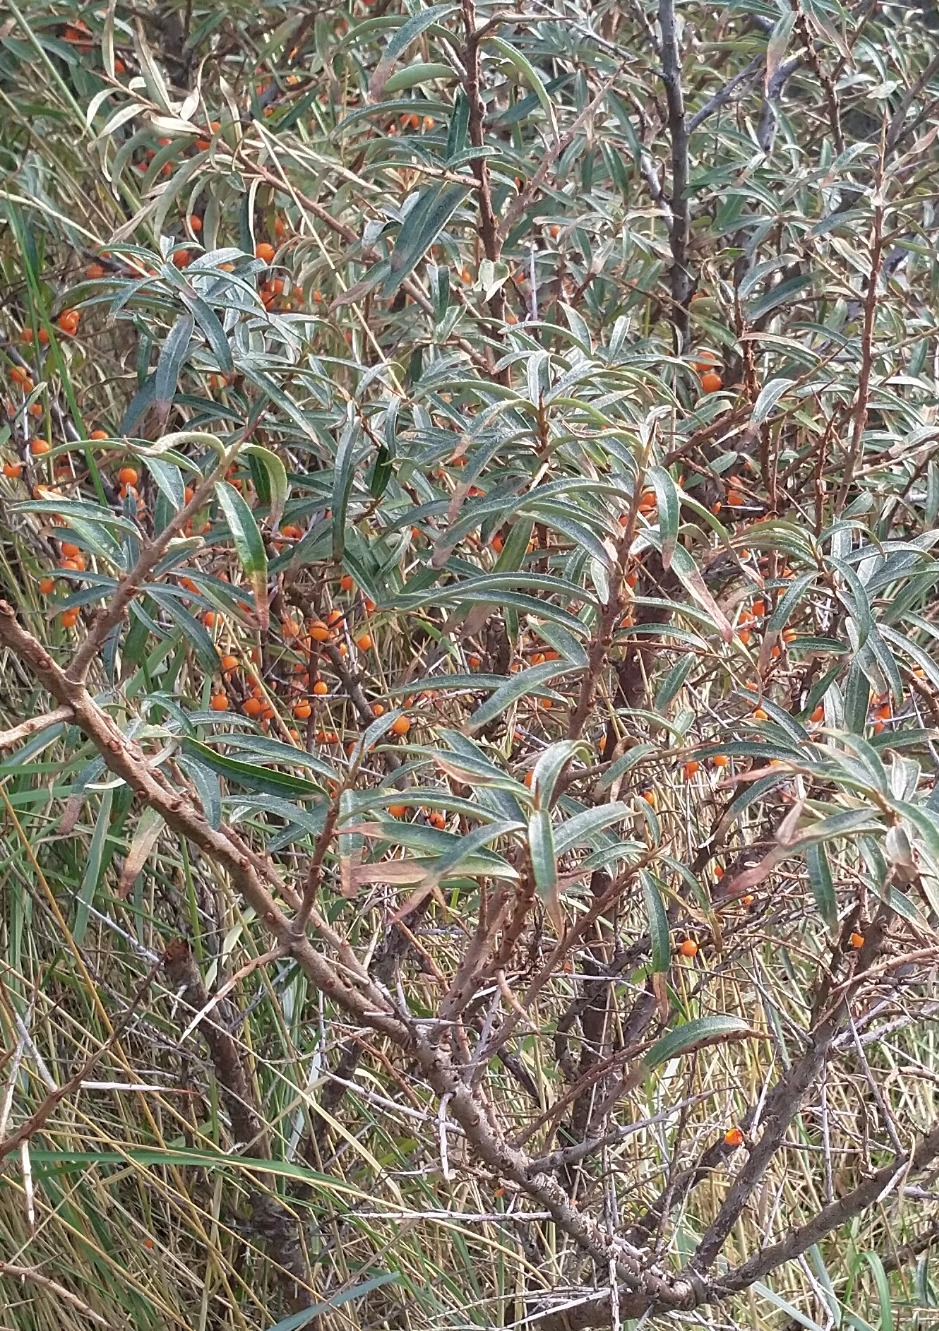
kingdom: Plantae
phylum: Tracheophyta
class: Magnoliopsida
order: Rosales
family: Elaeagnaceae
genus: Hippophae
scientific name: Hippophae rhamnoides
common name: Havtorn
